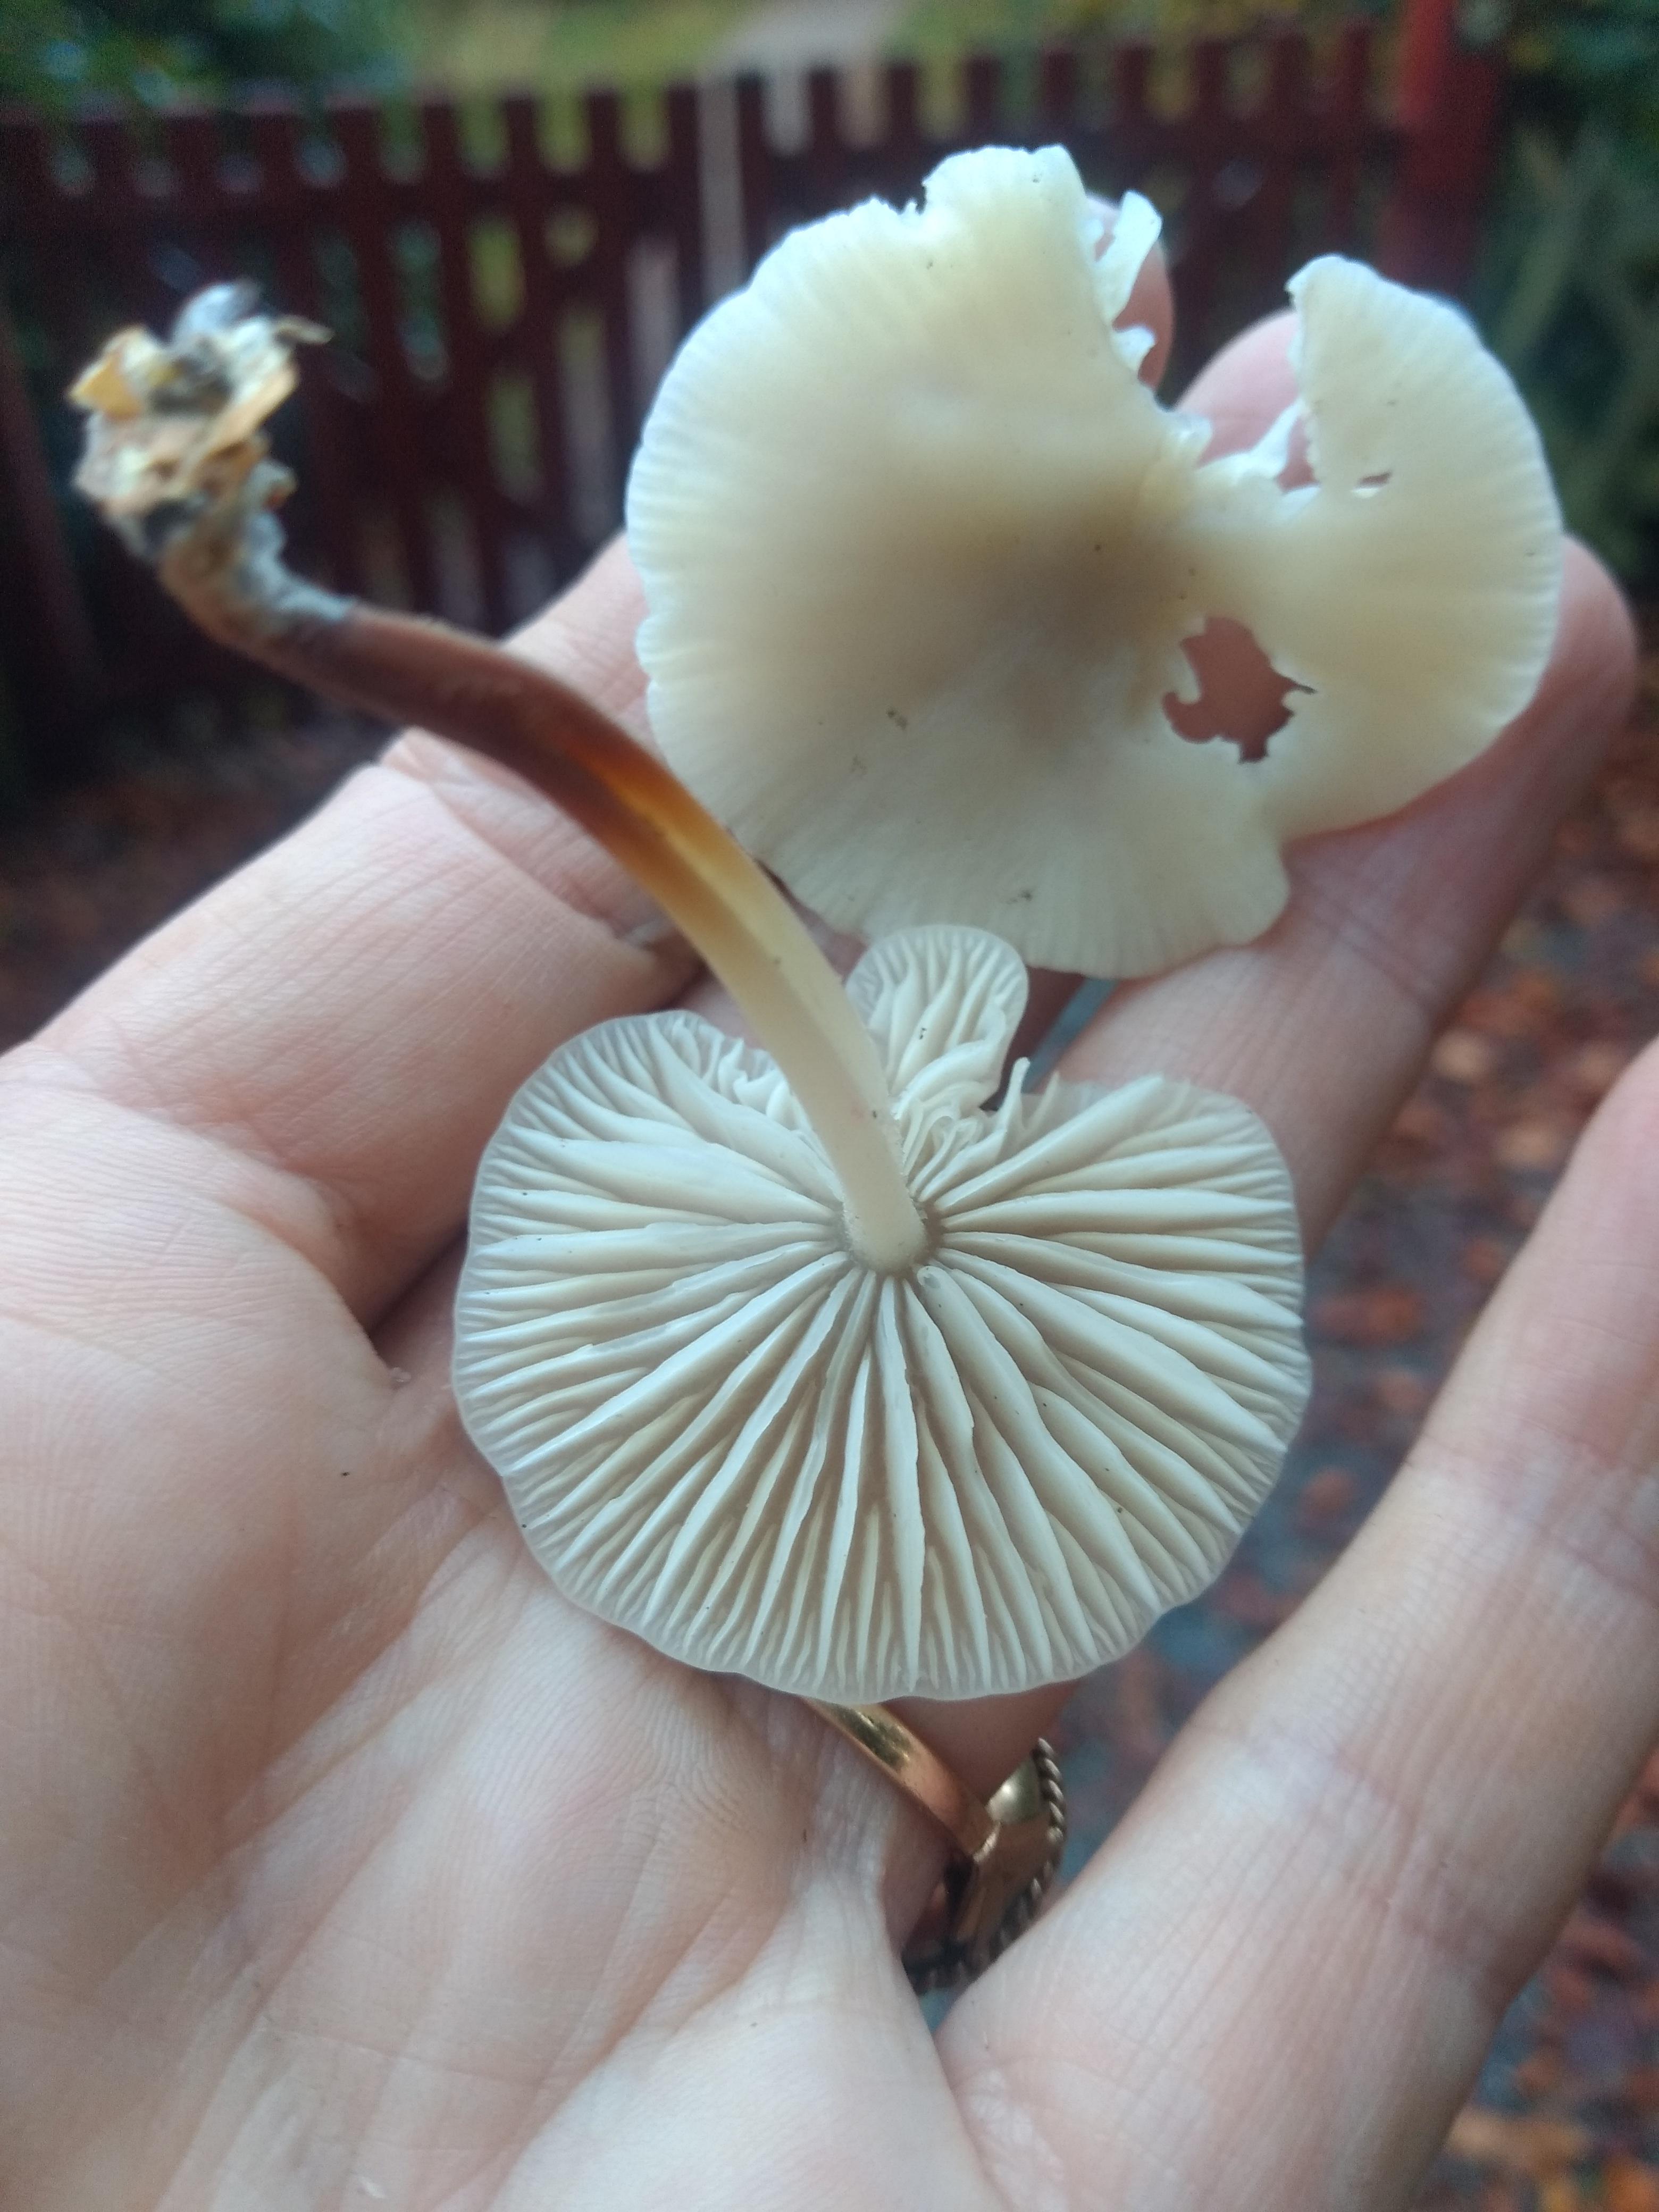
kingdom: Fungi
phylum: Basidiomycota
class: Agaricomycetes
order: Agaricales
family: Marasmiaceae
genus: Marasmius
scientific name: Marasmius wynneae
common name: hvælvet bruskhat
